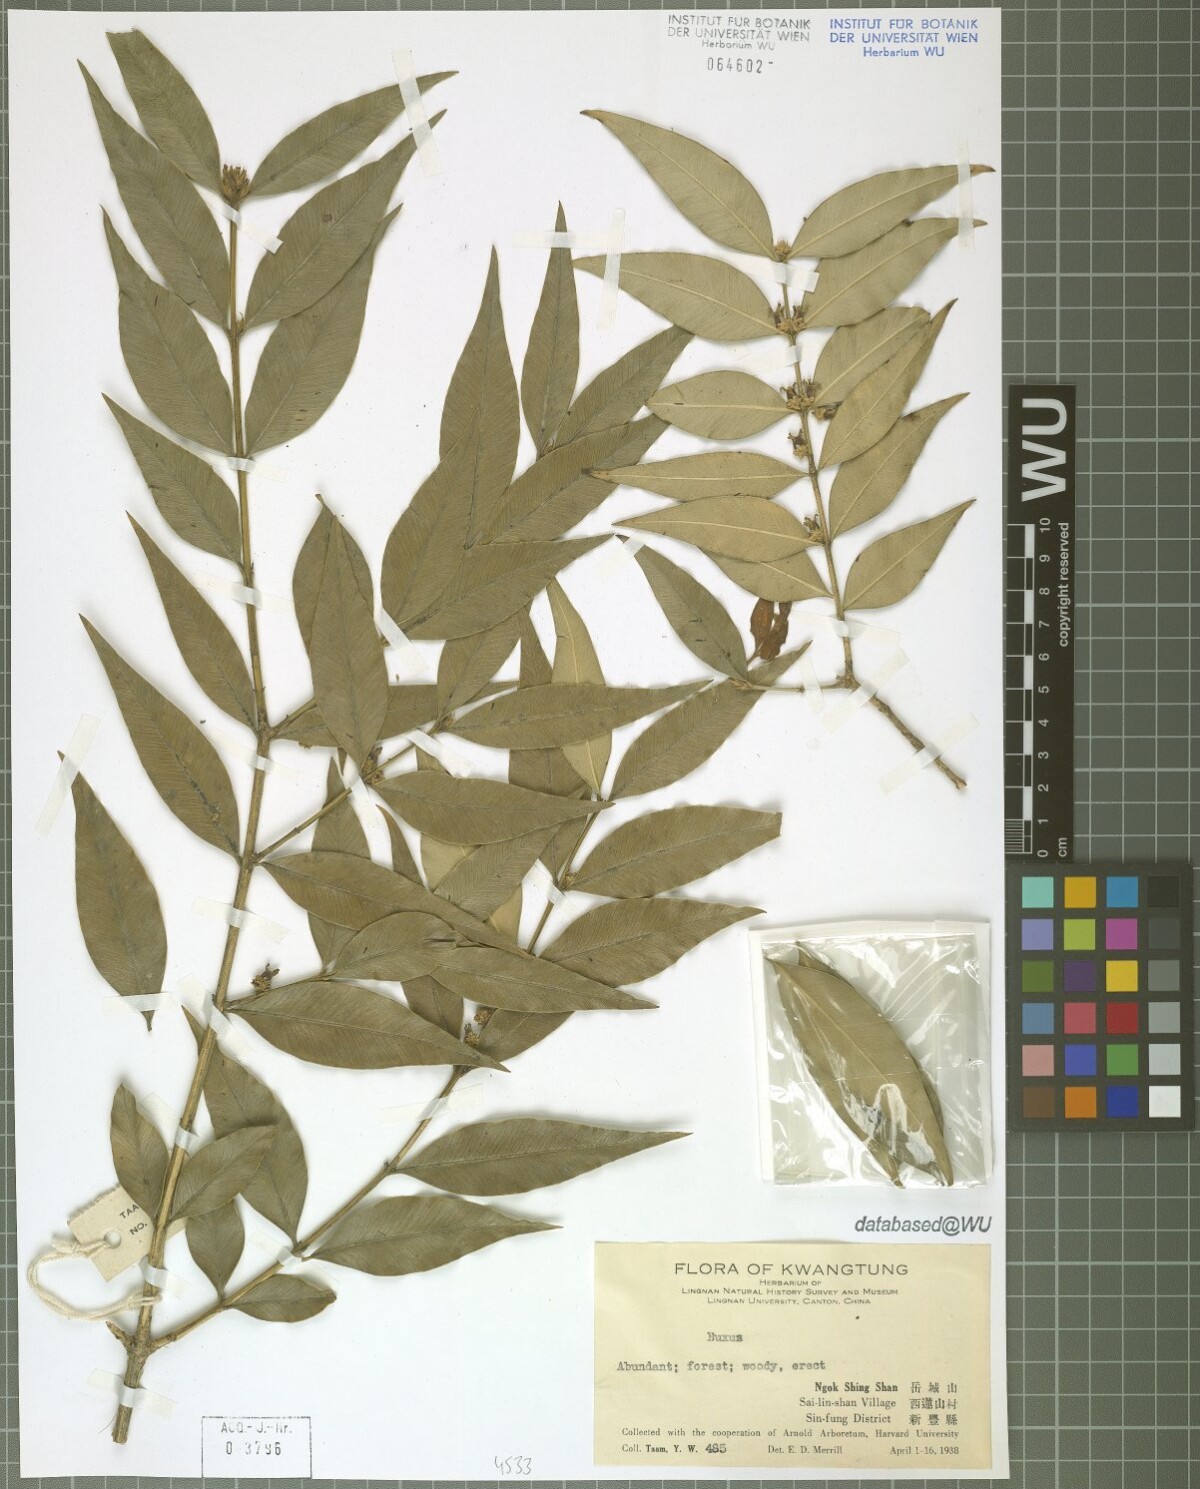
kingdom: Plantae
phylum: Tracheophyta
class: Magnoliopsida
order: Buxales
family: Buxaceae
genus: Buxus
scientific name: Buxus
